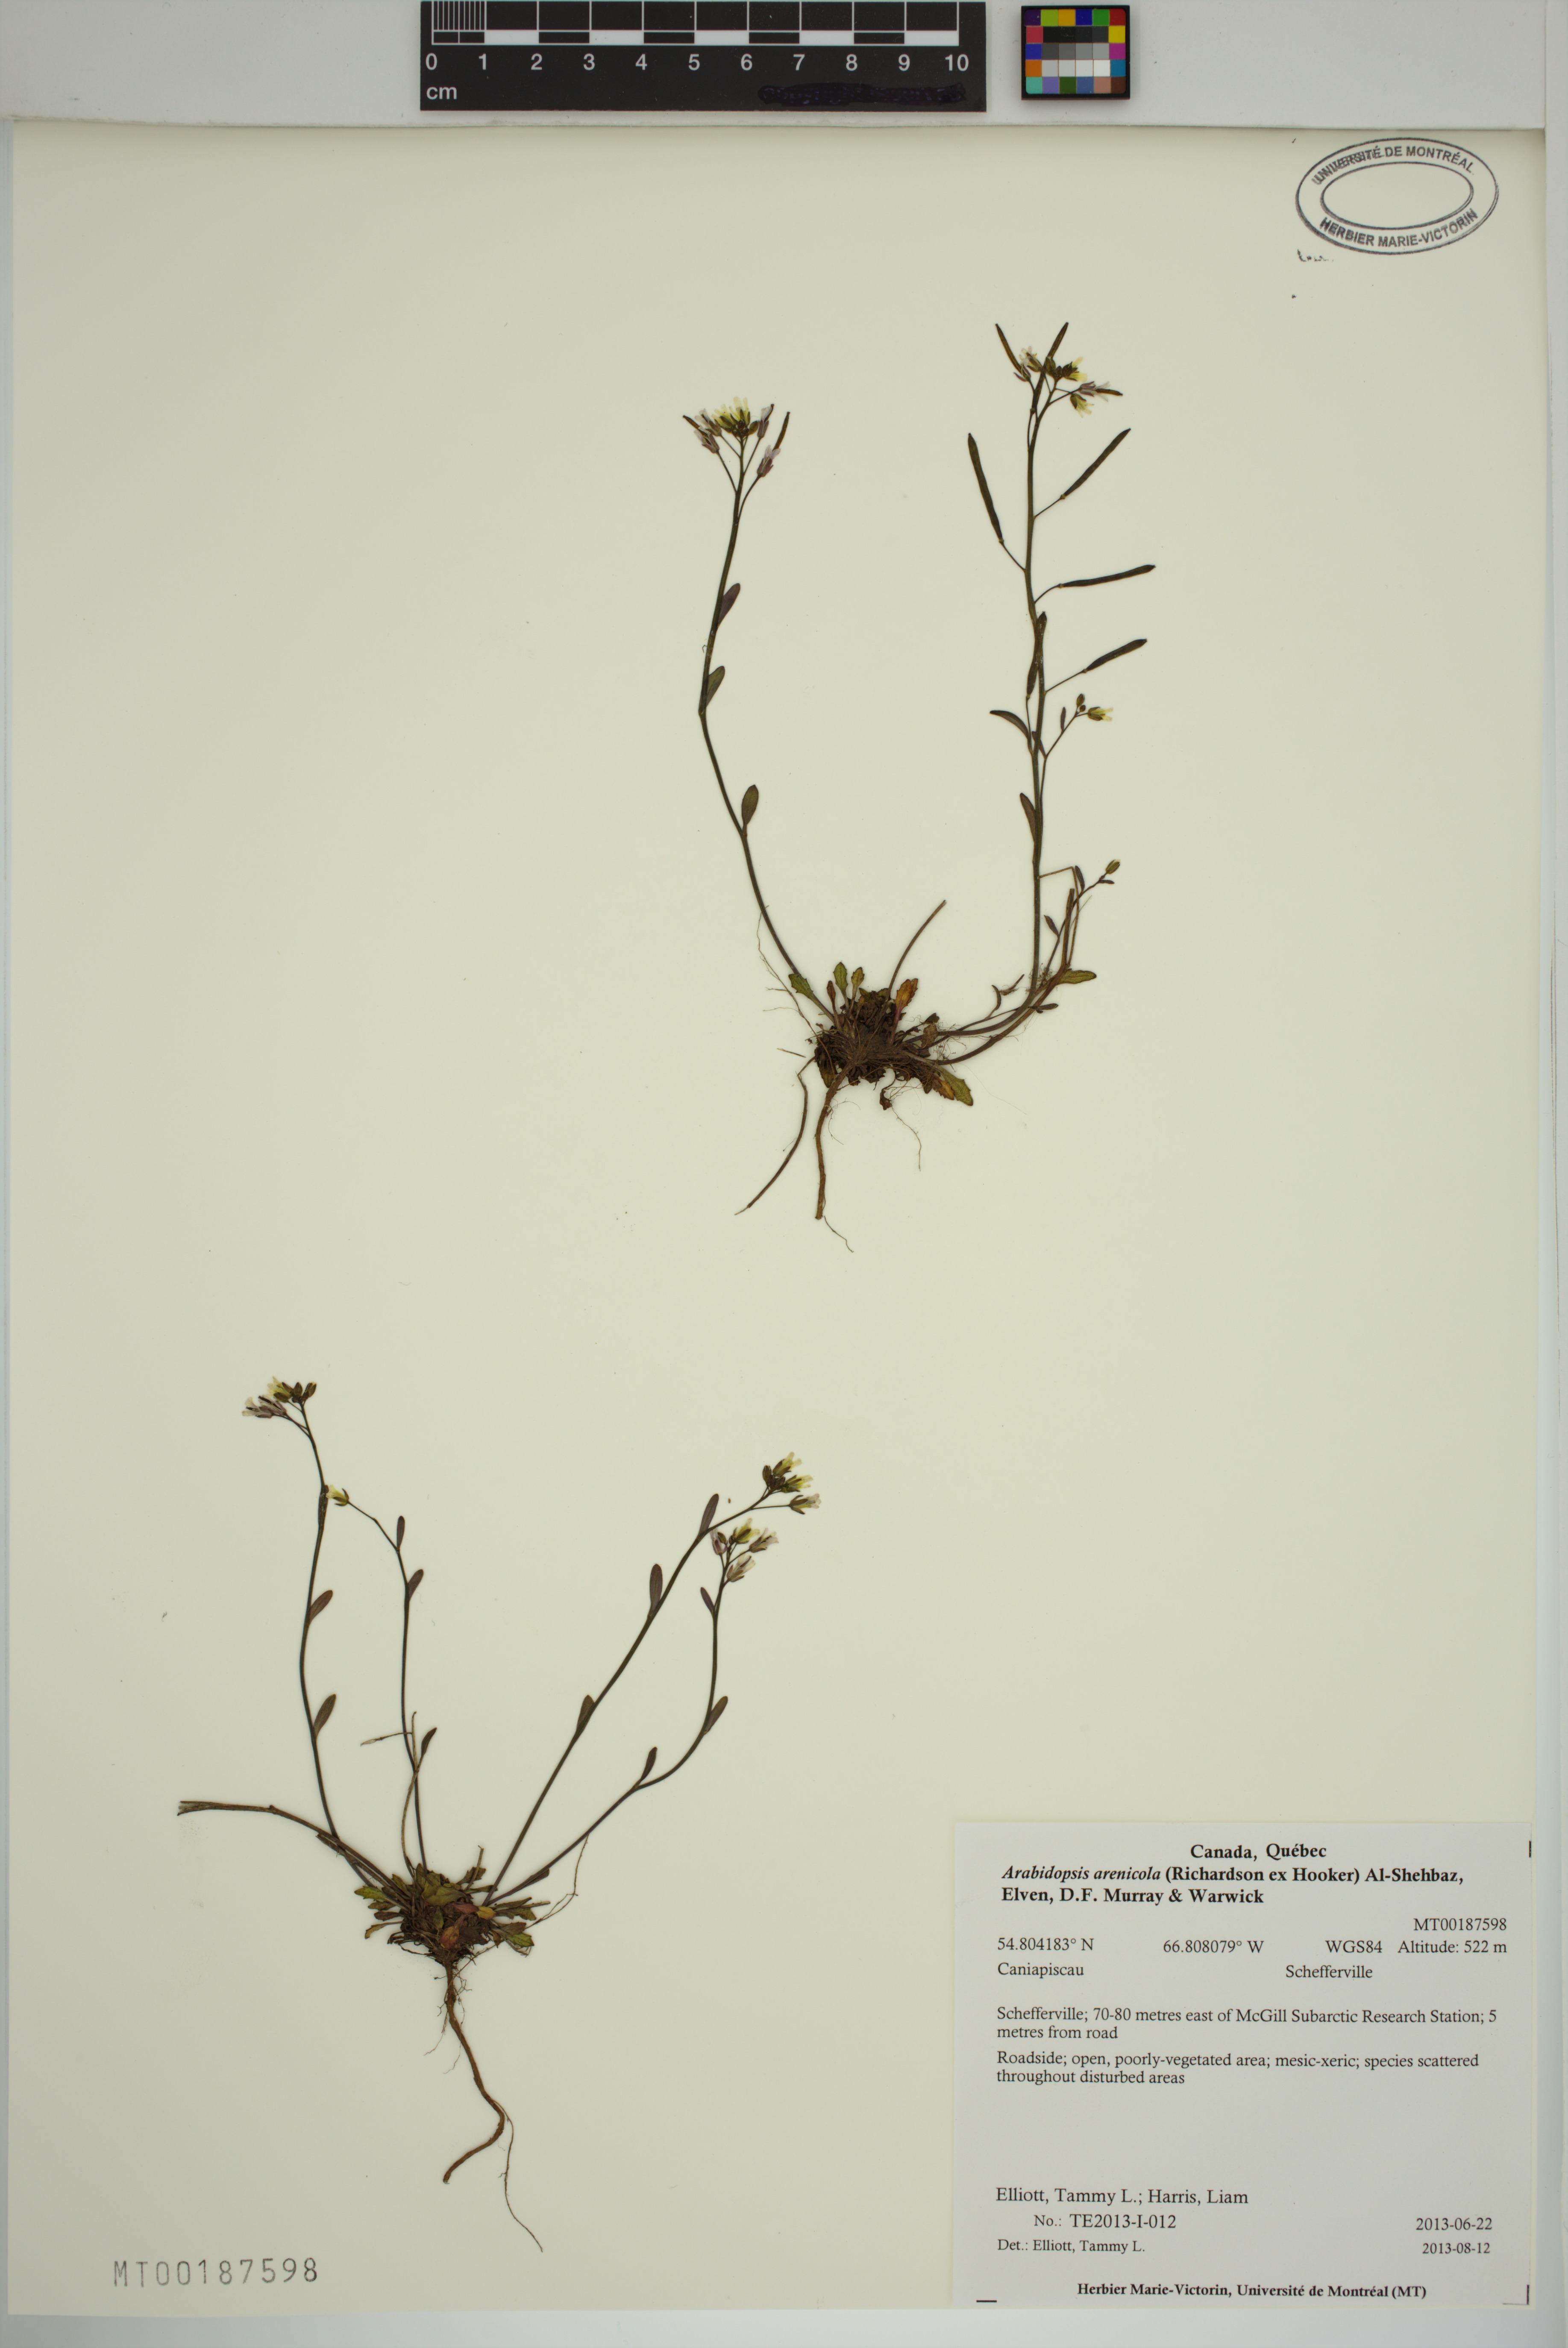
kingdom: Plantae
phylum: Tracheophyta
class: Magnoliopsida
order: Brassicales
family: Brassicaceae
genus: Arabidopsis
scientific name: Arabidopsis arenicola
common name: Arctic rockcress
